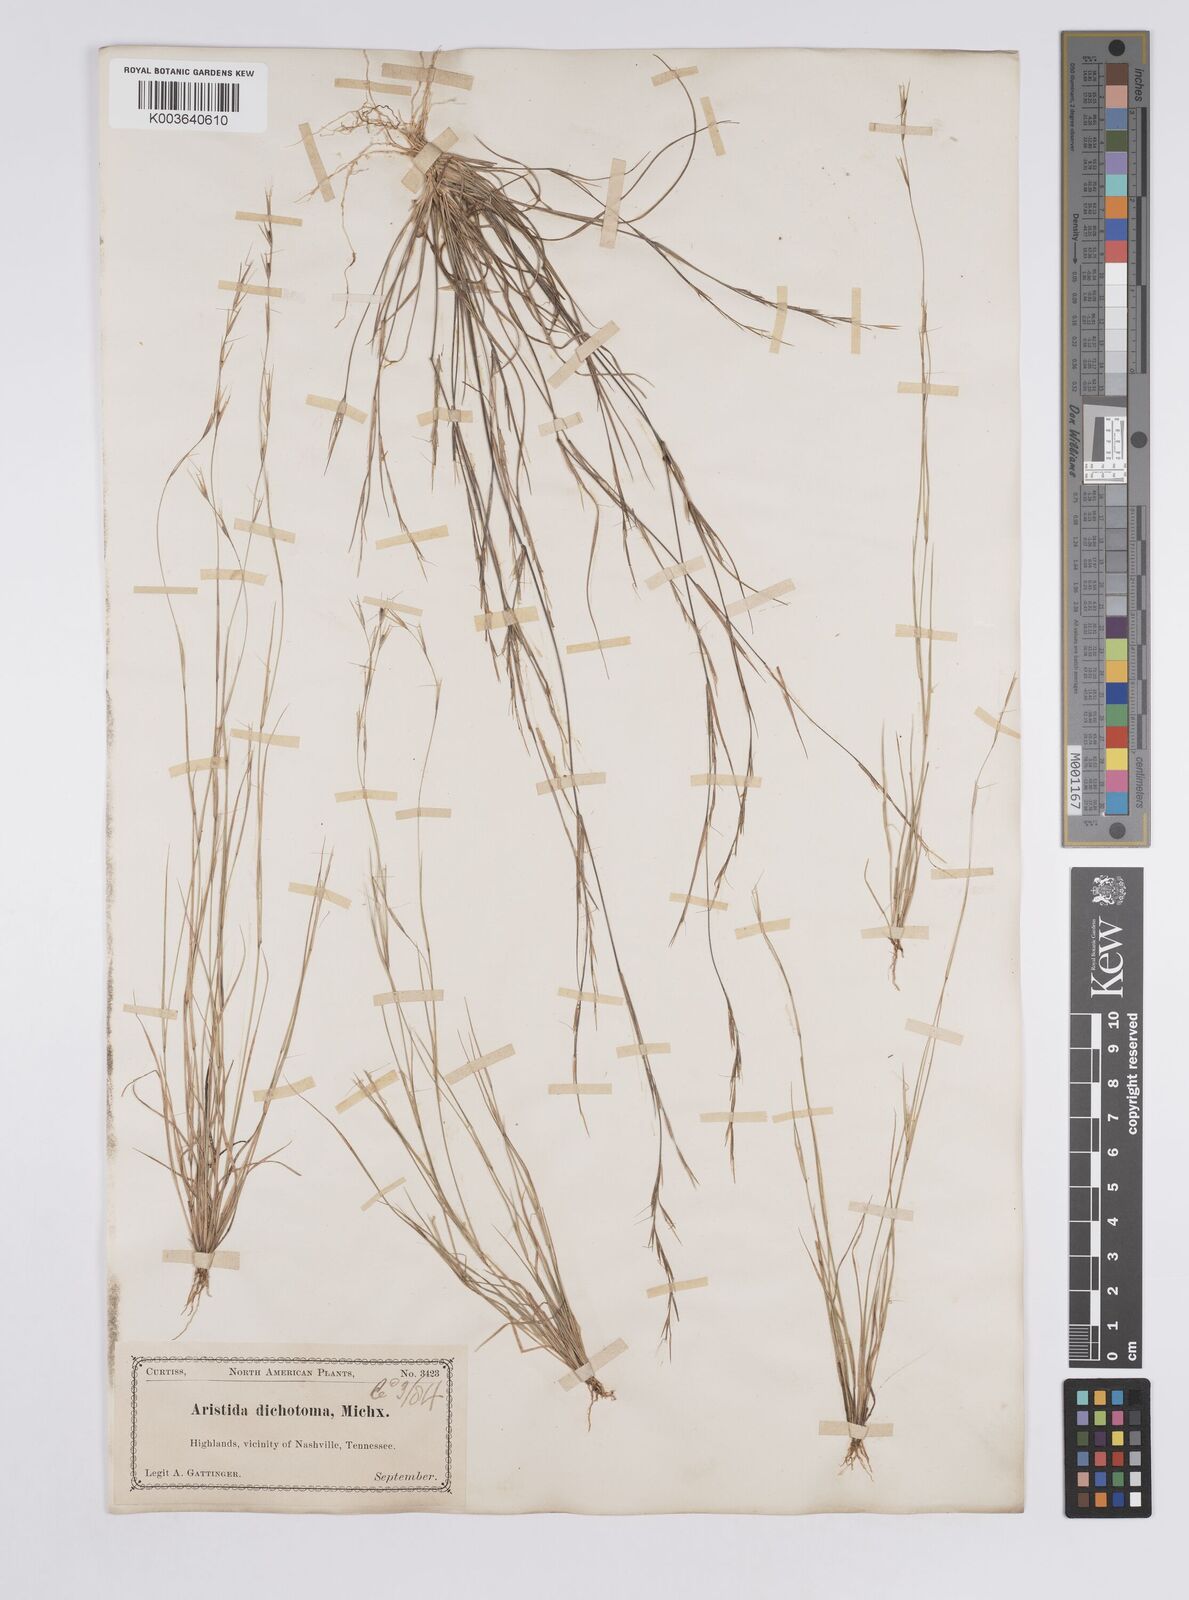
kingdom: Plantae
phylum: Tracheophyta
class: Liliopsida
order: Poales
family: Poaceae
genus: Aristida
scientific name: Aristida dichotoma
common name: Churchmouse three-awn
